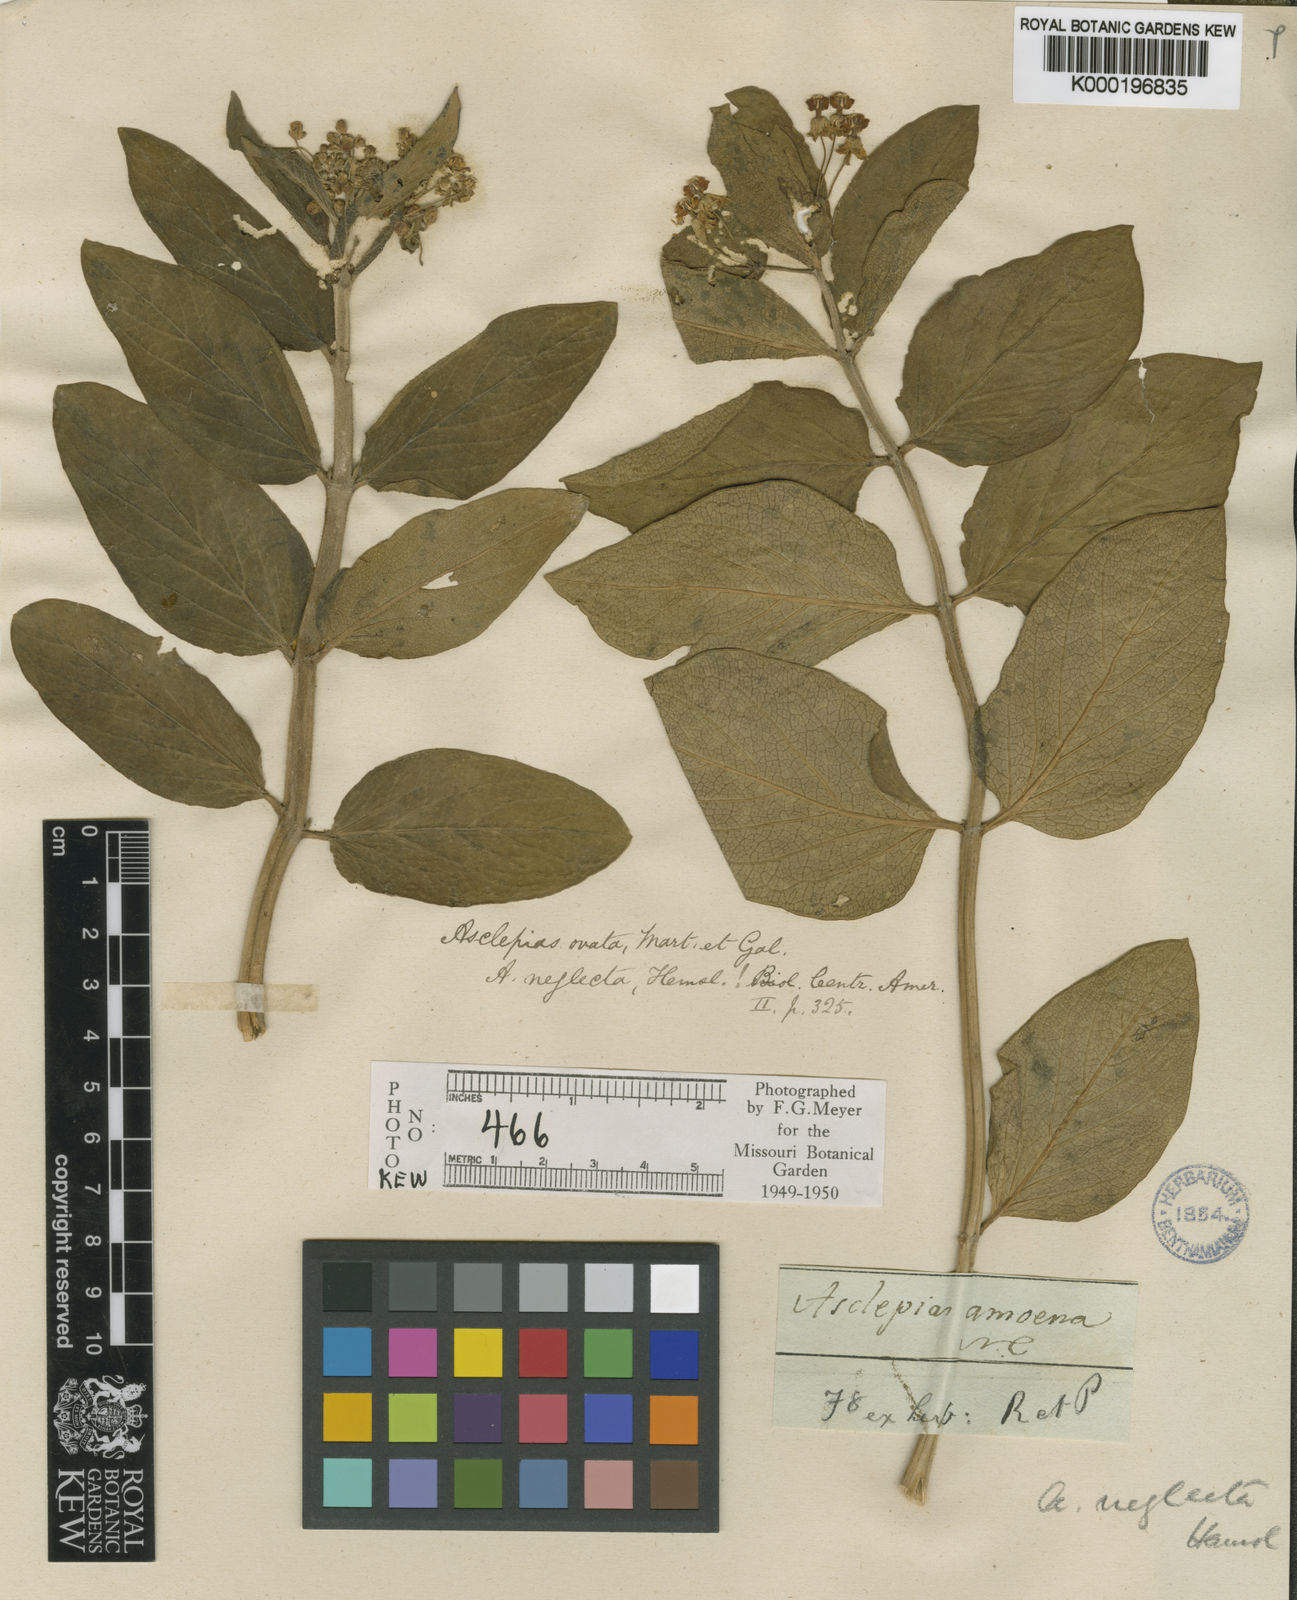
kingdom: Plantae
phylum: Tracheophyta
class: Magnoliopsida
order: Gentianales
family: Apocynaceae
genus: Asclepias
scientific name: Asclepias ovata
